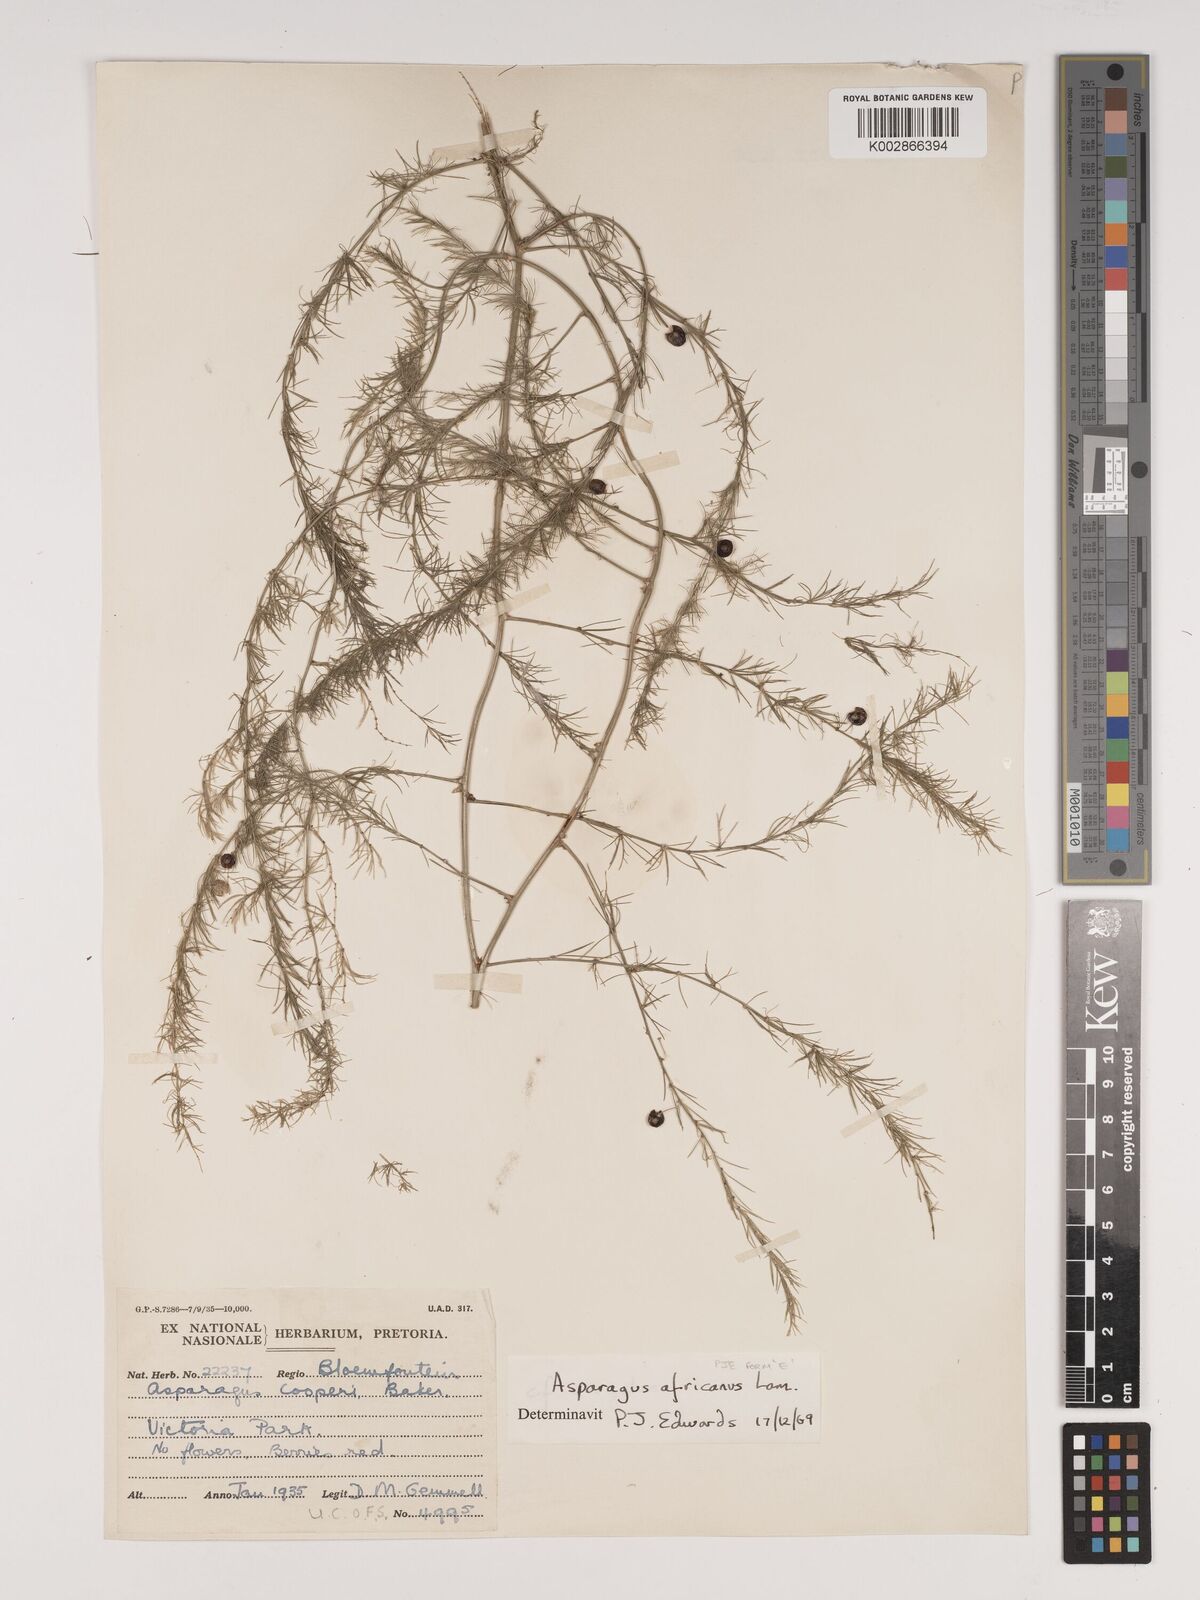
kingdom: Plantae
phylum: Tracheophyta
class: Liliopsida
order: Asparagales
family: Asparagaceae
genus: Asparagus
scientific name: Asparagus africanus
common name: Asparagus-fern
